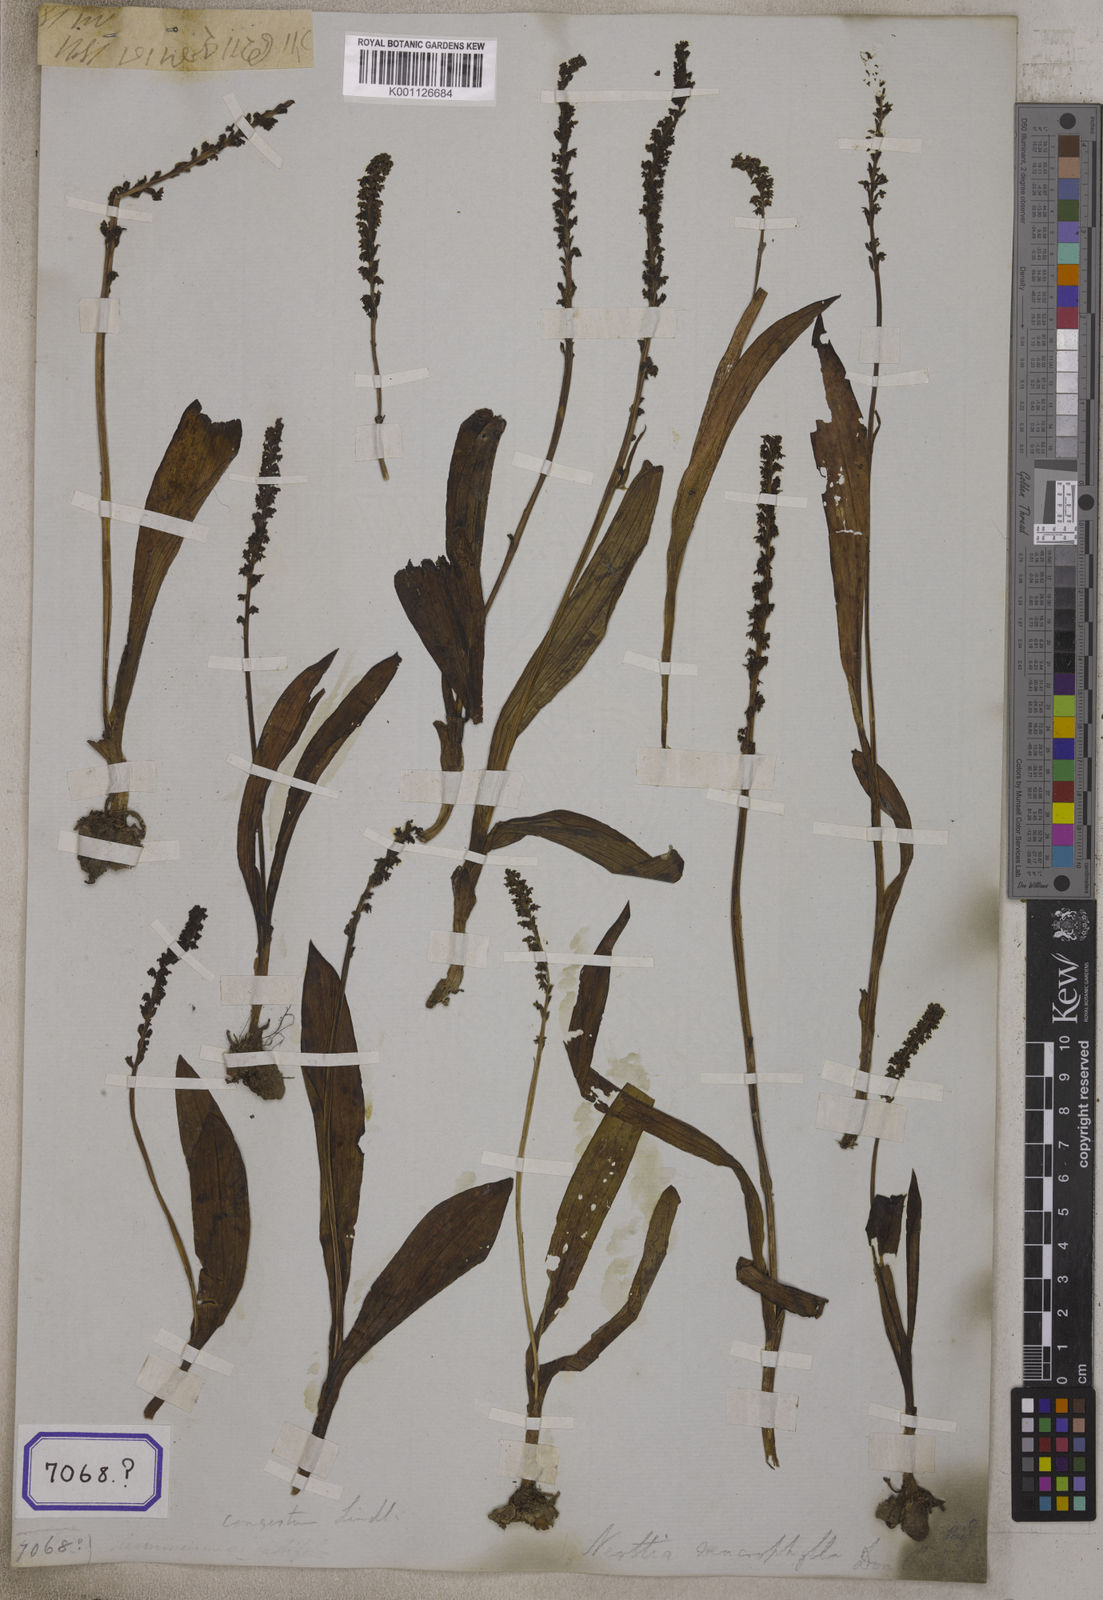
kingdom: Plantae
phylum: Tracheophyta
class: Liliopsida
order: Asparagales
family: Orchidaceae
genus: Herminium
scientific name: Herminium macrophyllum
